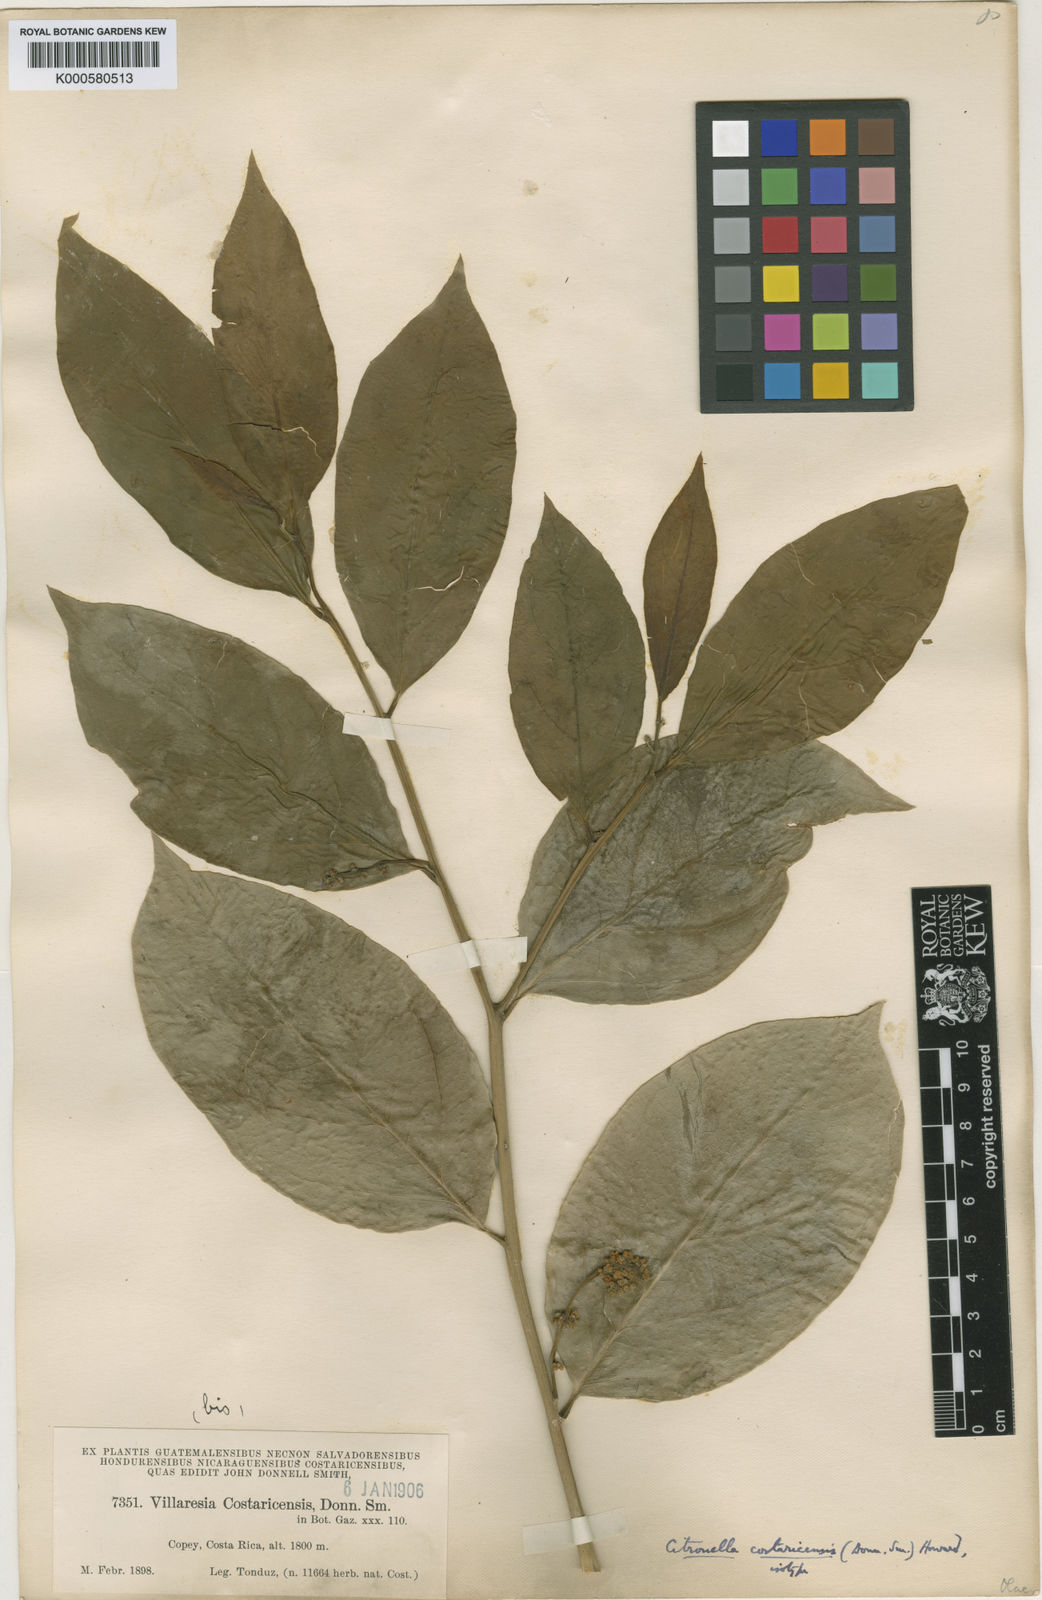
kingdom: Plantae
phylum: Tracheophyta
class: Magnoliopsida
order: Cardiopteridales
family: Cardiopteridaceae
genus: Citronella
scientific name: Citronella costaricensis
